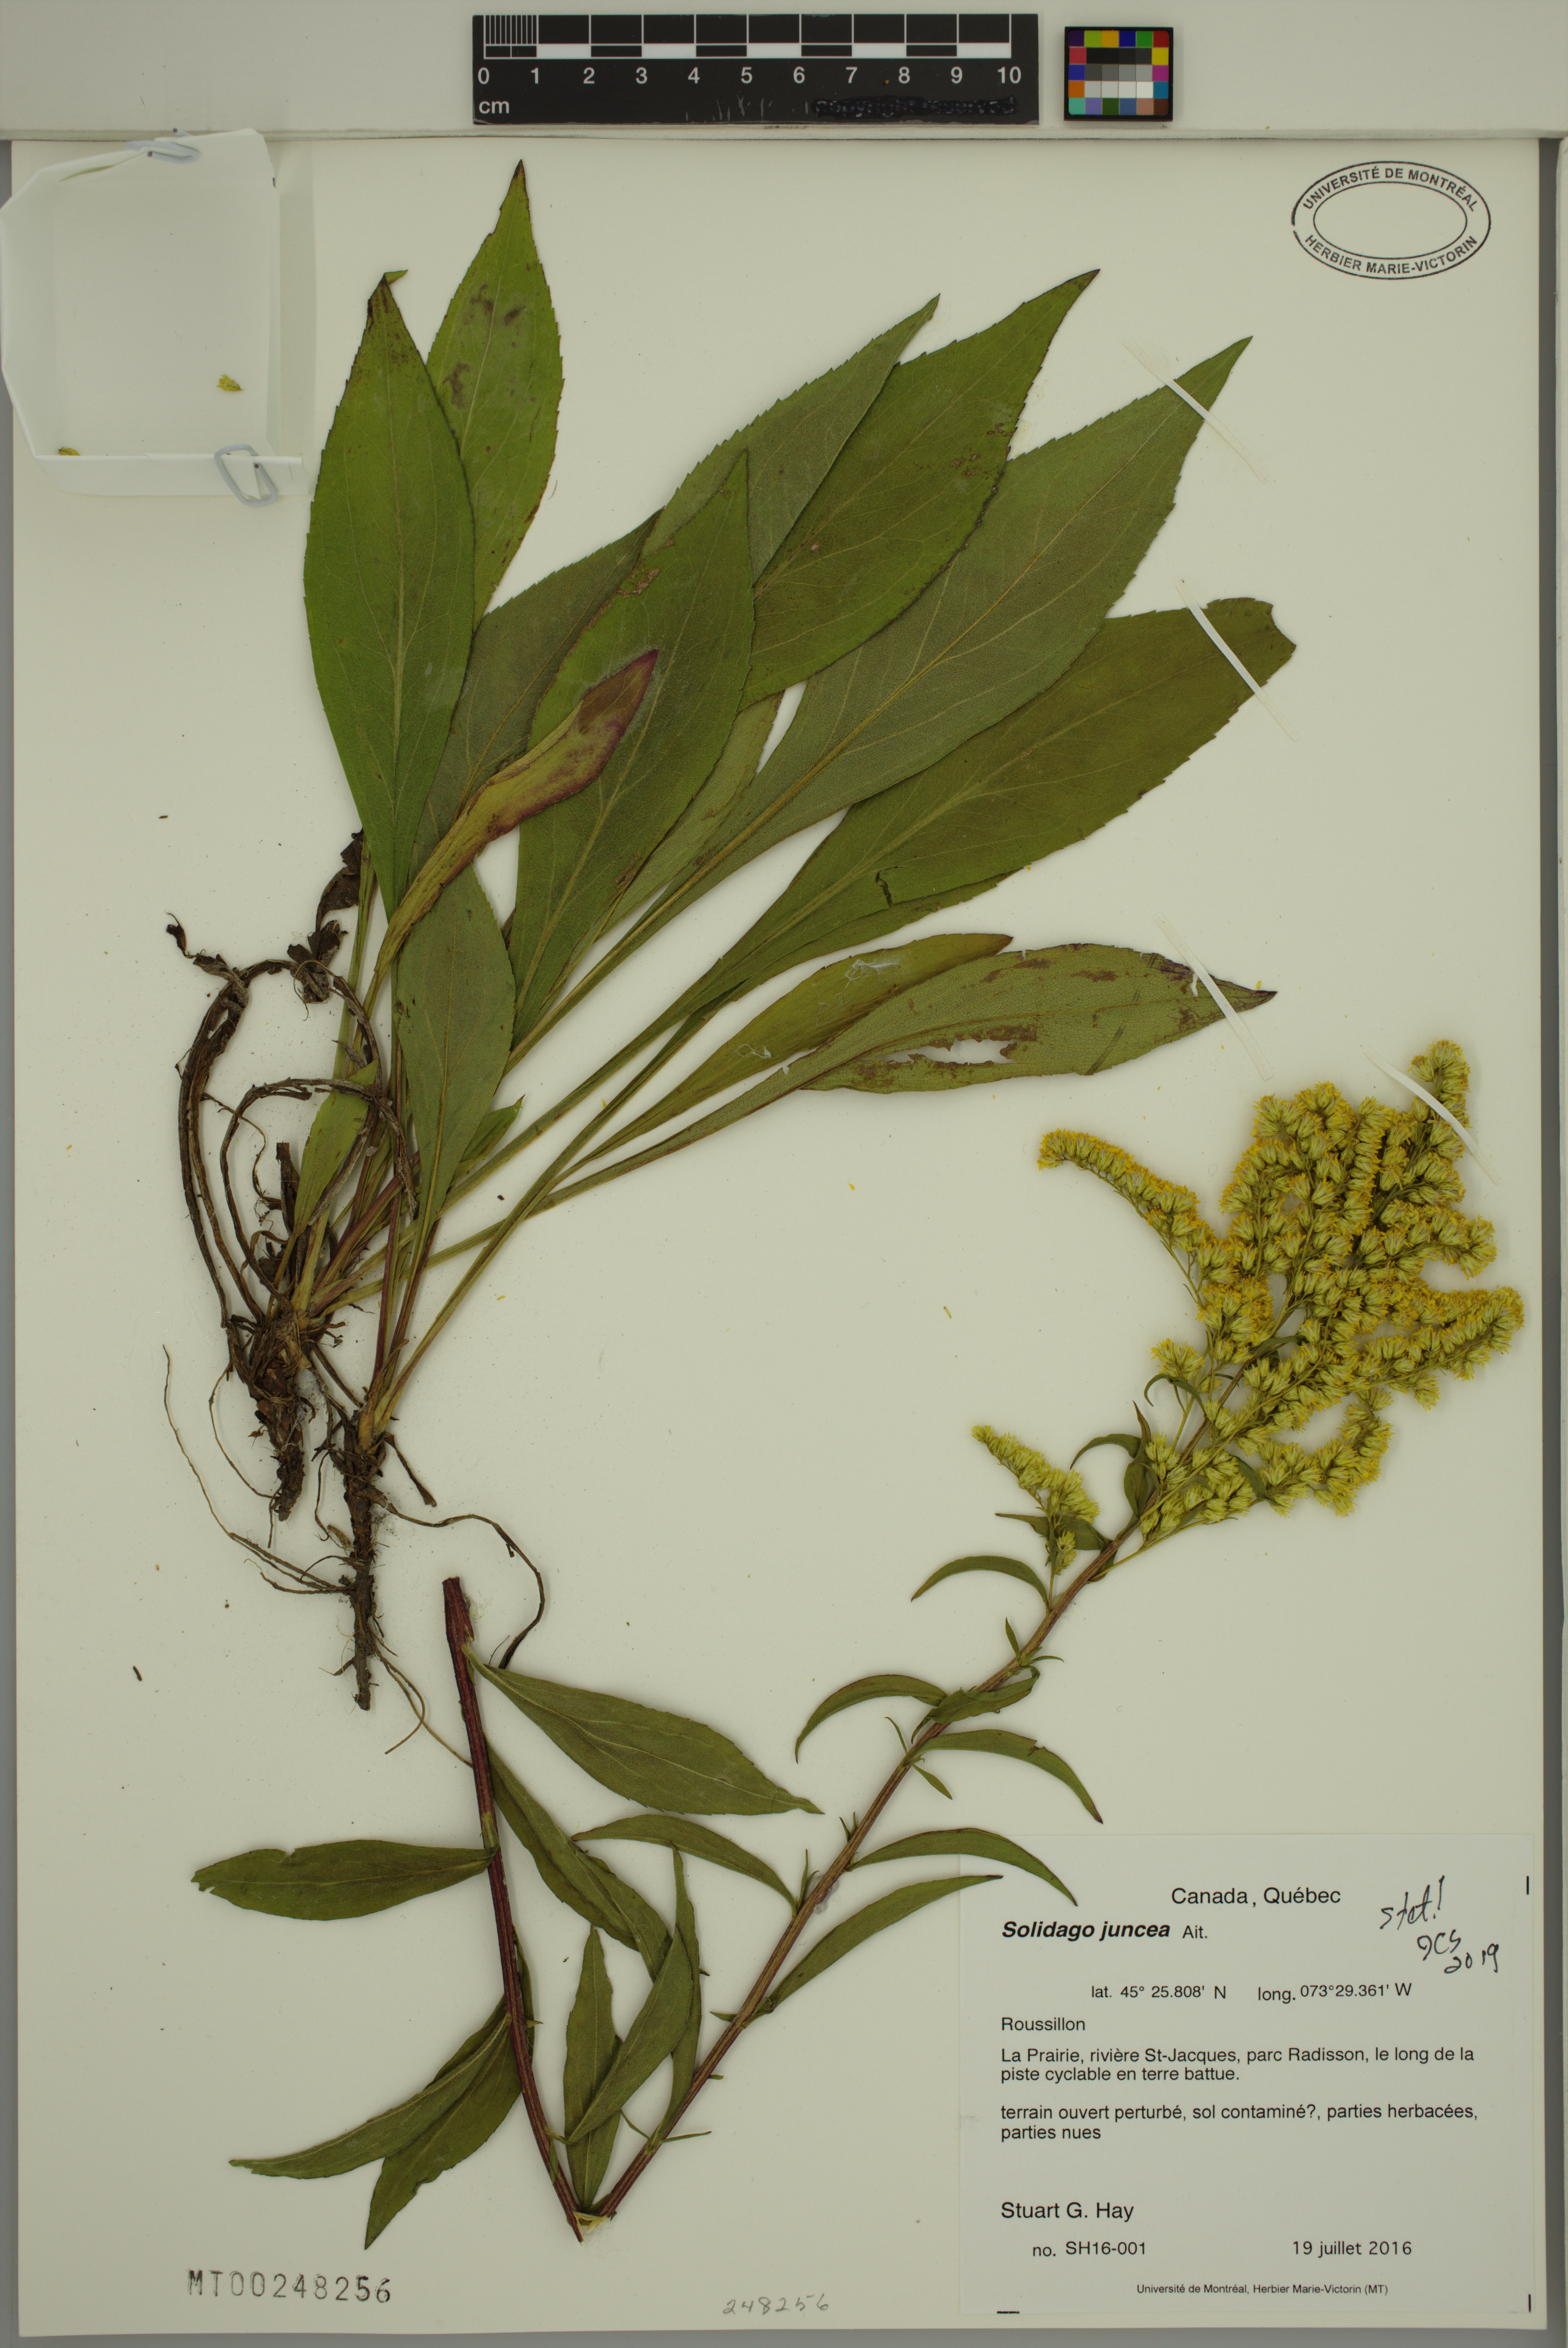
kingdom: Plantae
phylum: Tracheophyta
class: Magnoliopsida
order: Asterales
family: Asteraceae
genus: Solidago
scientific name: Solidago juncea
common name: Early goldenrod
